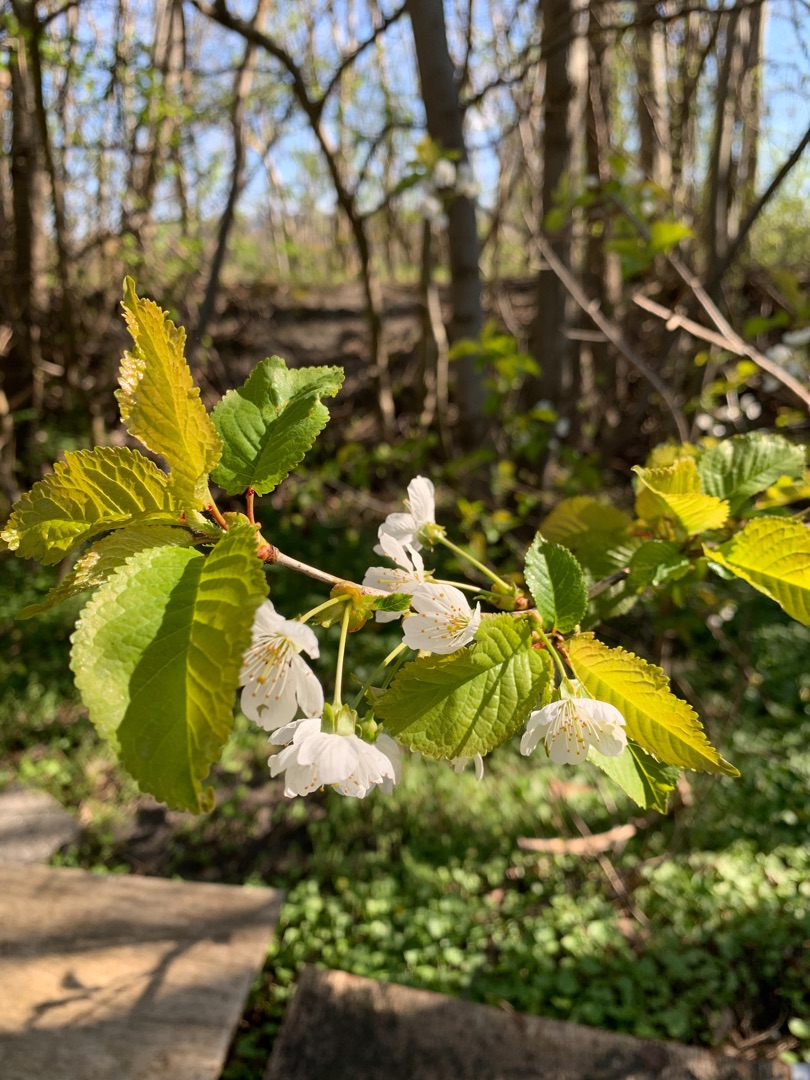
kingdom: Plantae
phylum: Tracheophyta
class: Magnoliopsida
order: Rosales
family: Rosaceae
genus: Prunus
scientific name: Prunus avium
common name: Fugle-kirsebær
